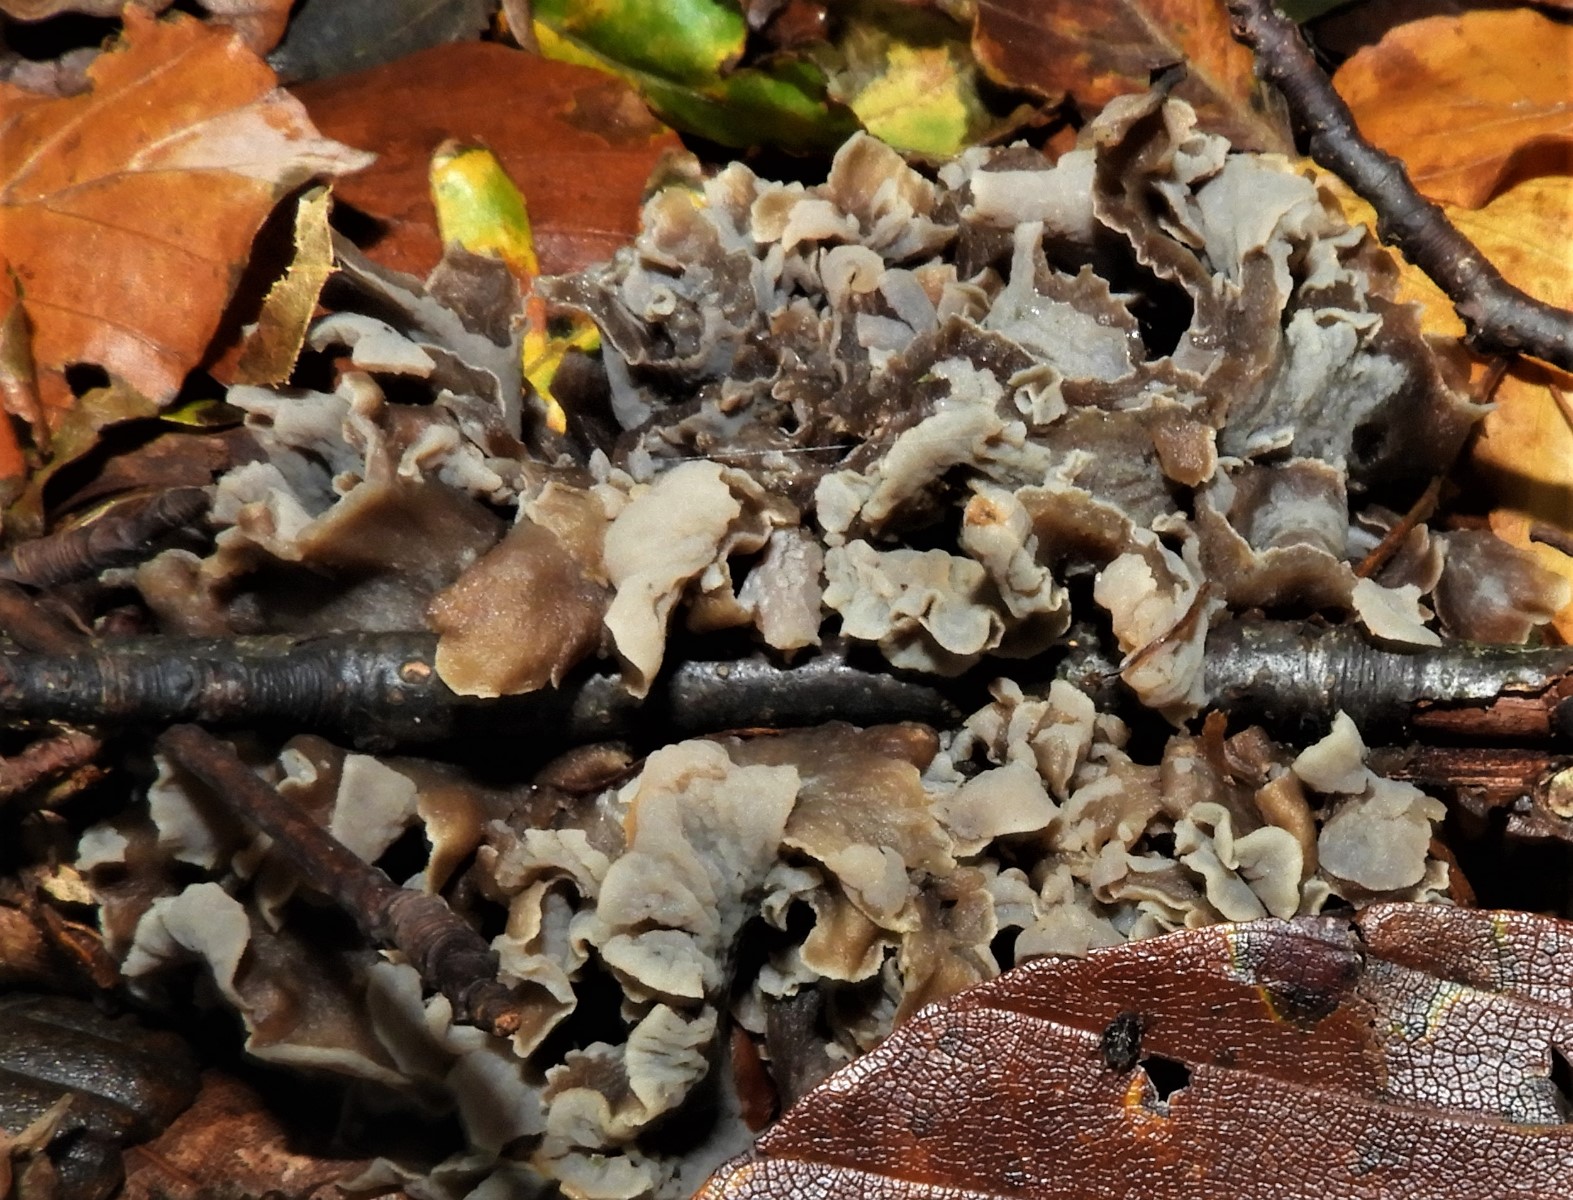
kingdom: Fungi
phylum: Basidiomycota
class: Agaricomycetes
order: Cantharellales
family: Hydnaceae
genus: Craterellus
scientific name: Craterellus undulatus
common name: liden kantarel
